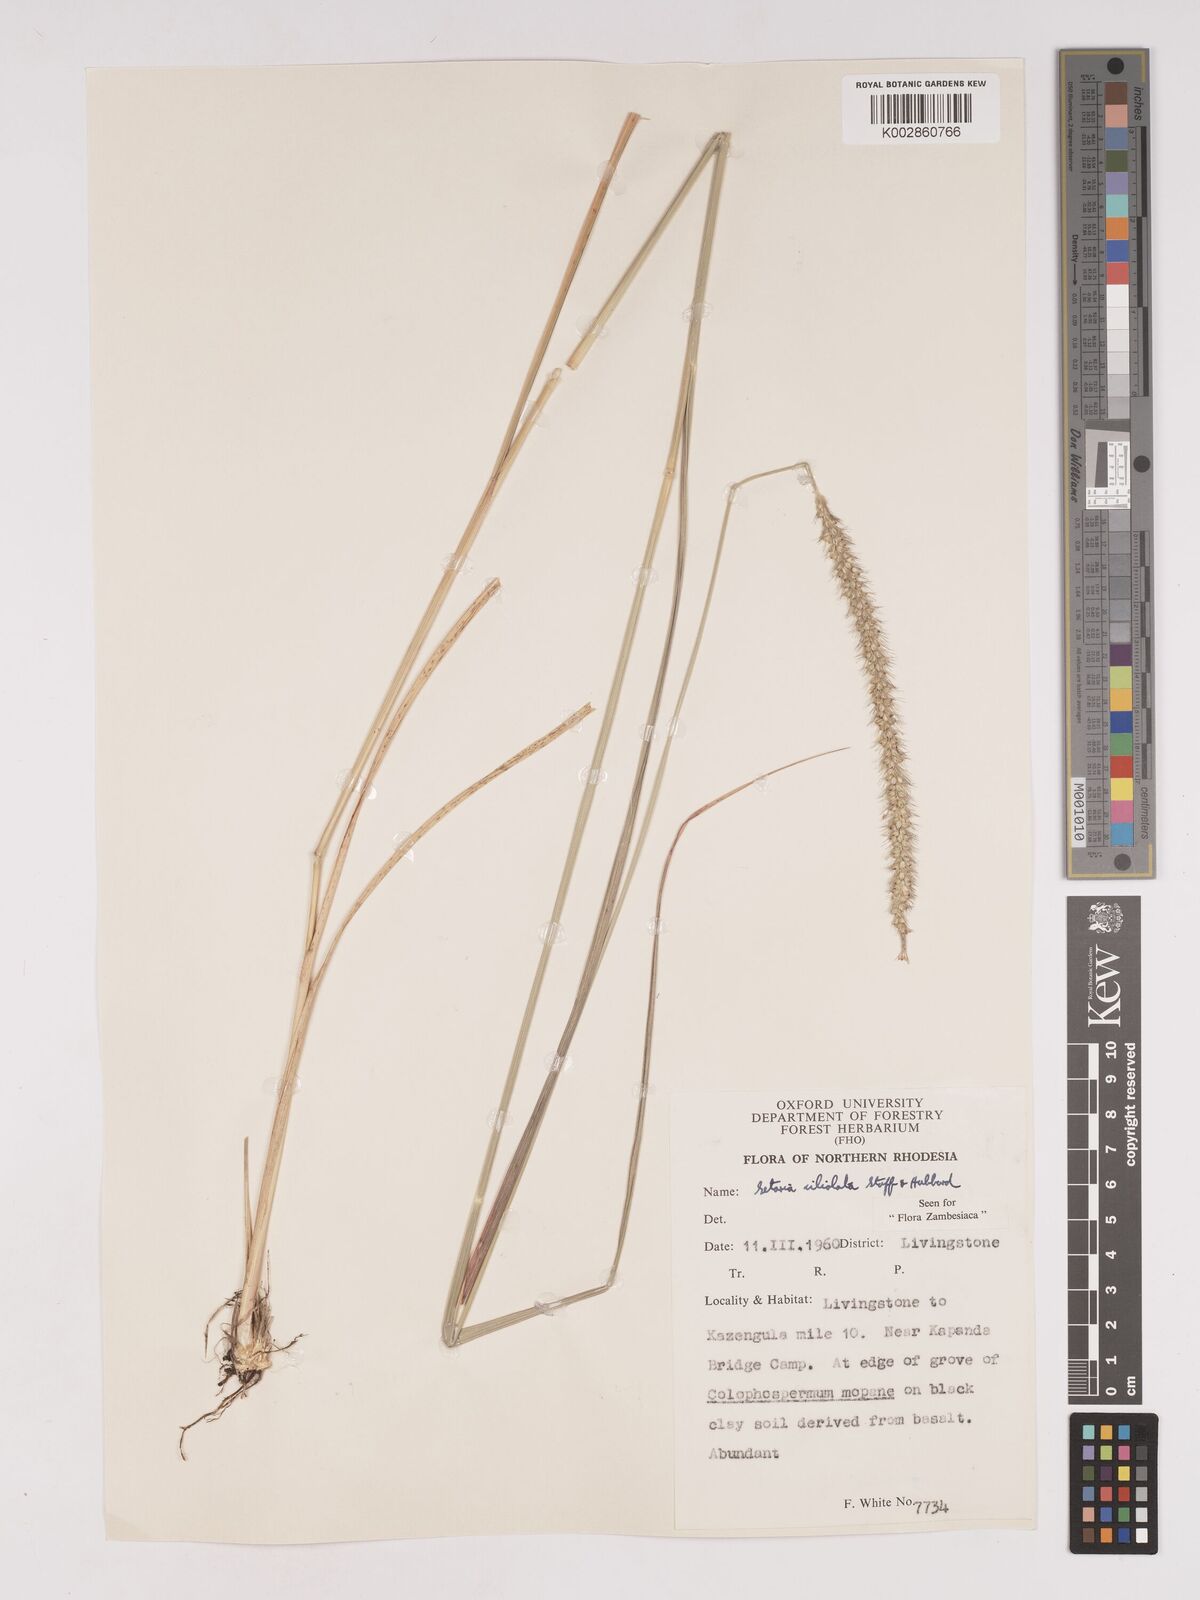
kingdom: Plantae
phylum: Tracheophyta
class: Liliopsida
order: Poales
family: Poaceae
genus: Setaria
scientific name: Setaria incrassata
